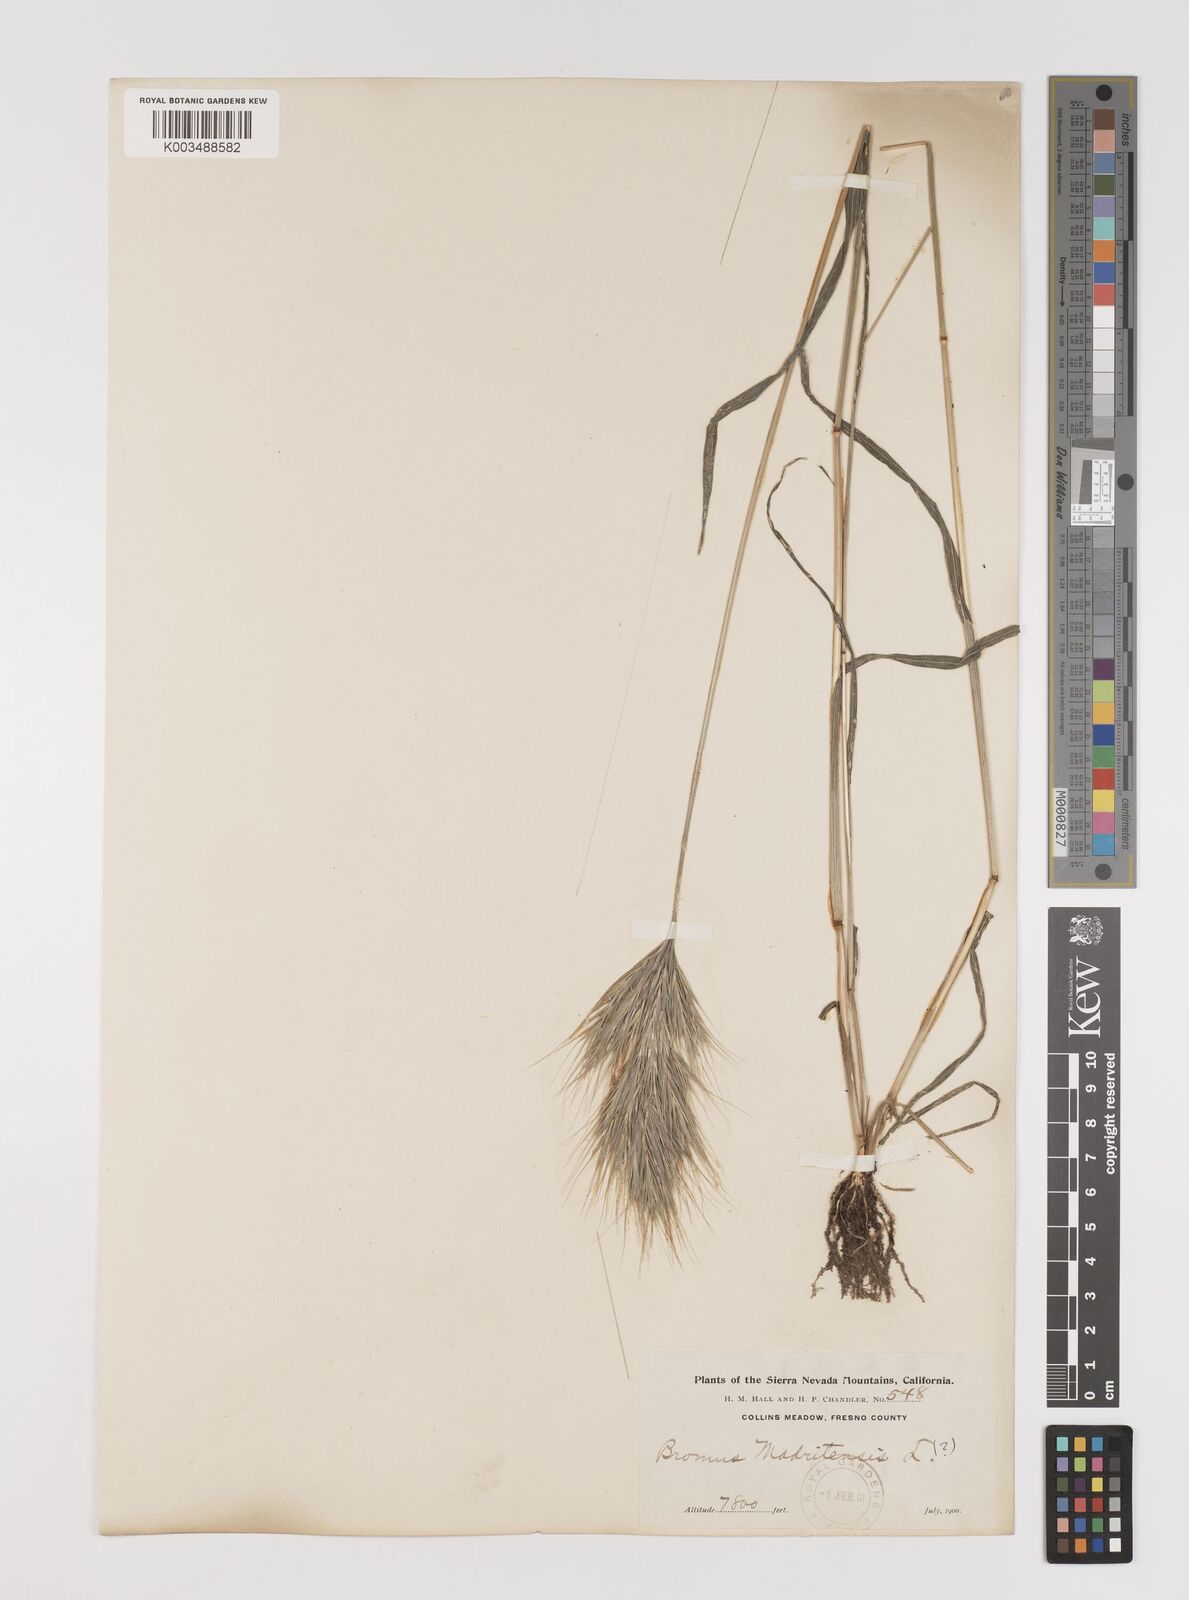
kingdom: Plantae
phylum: Tracheophyta
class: Liliopsida
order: Poales
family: Poaceae
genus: Bromus
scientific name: Bromus madritensis
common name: Compact brome
